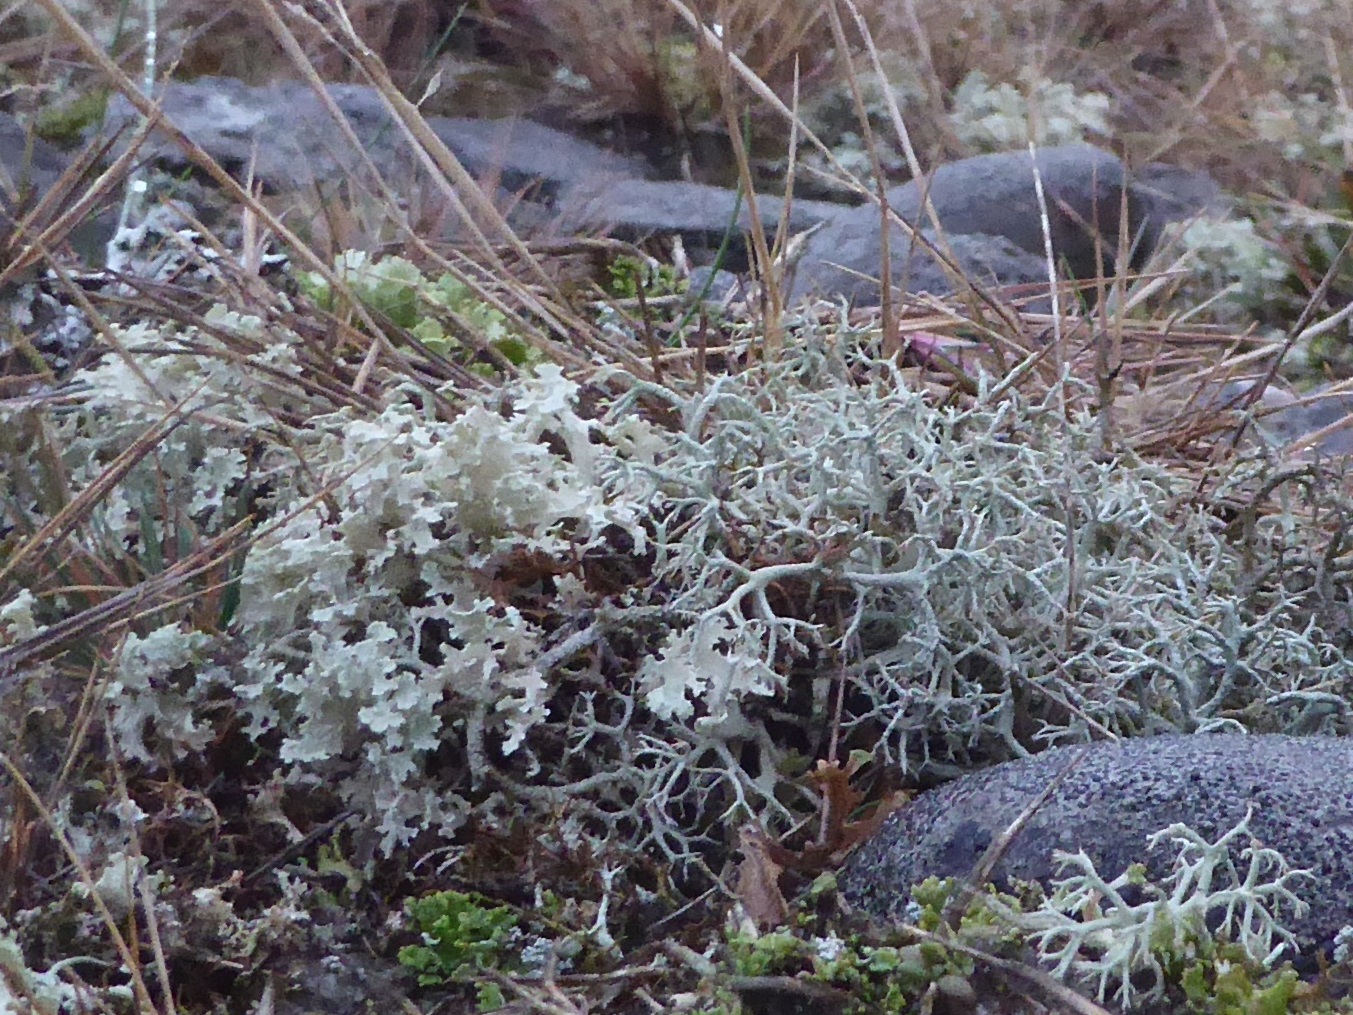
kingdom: Fungi
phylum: Ascomycota
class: Lecanoromycetes
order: Lecanorales
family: Parmeliaceae
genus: Nephromopsis
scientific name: Nephromopsis nivalis
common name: sne-kruslav
